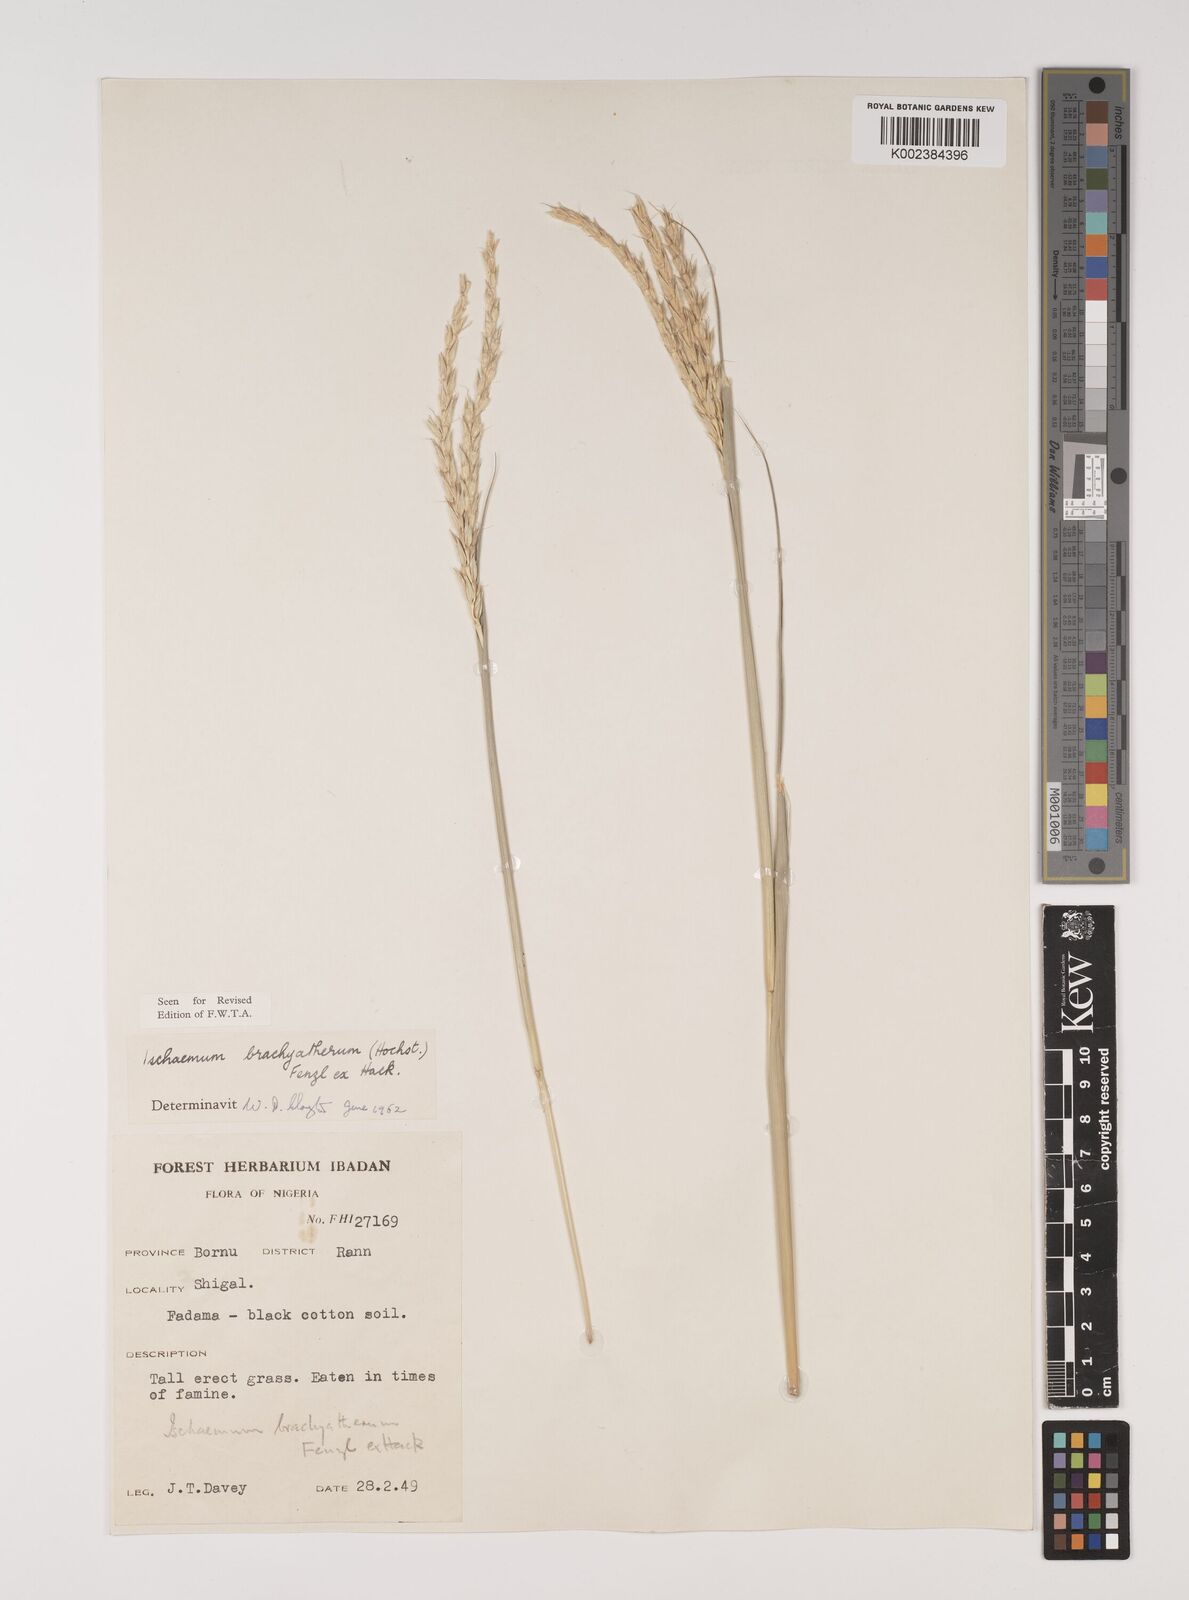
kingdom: Plantae
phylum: Tracheophyta
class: Liliopsida
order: Poales
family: Poaceae
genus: Ischaemum
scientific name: Ischaemum afrum
